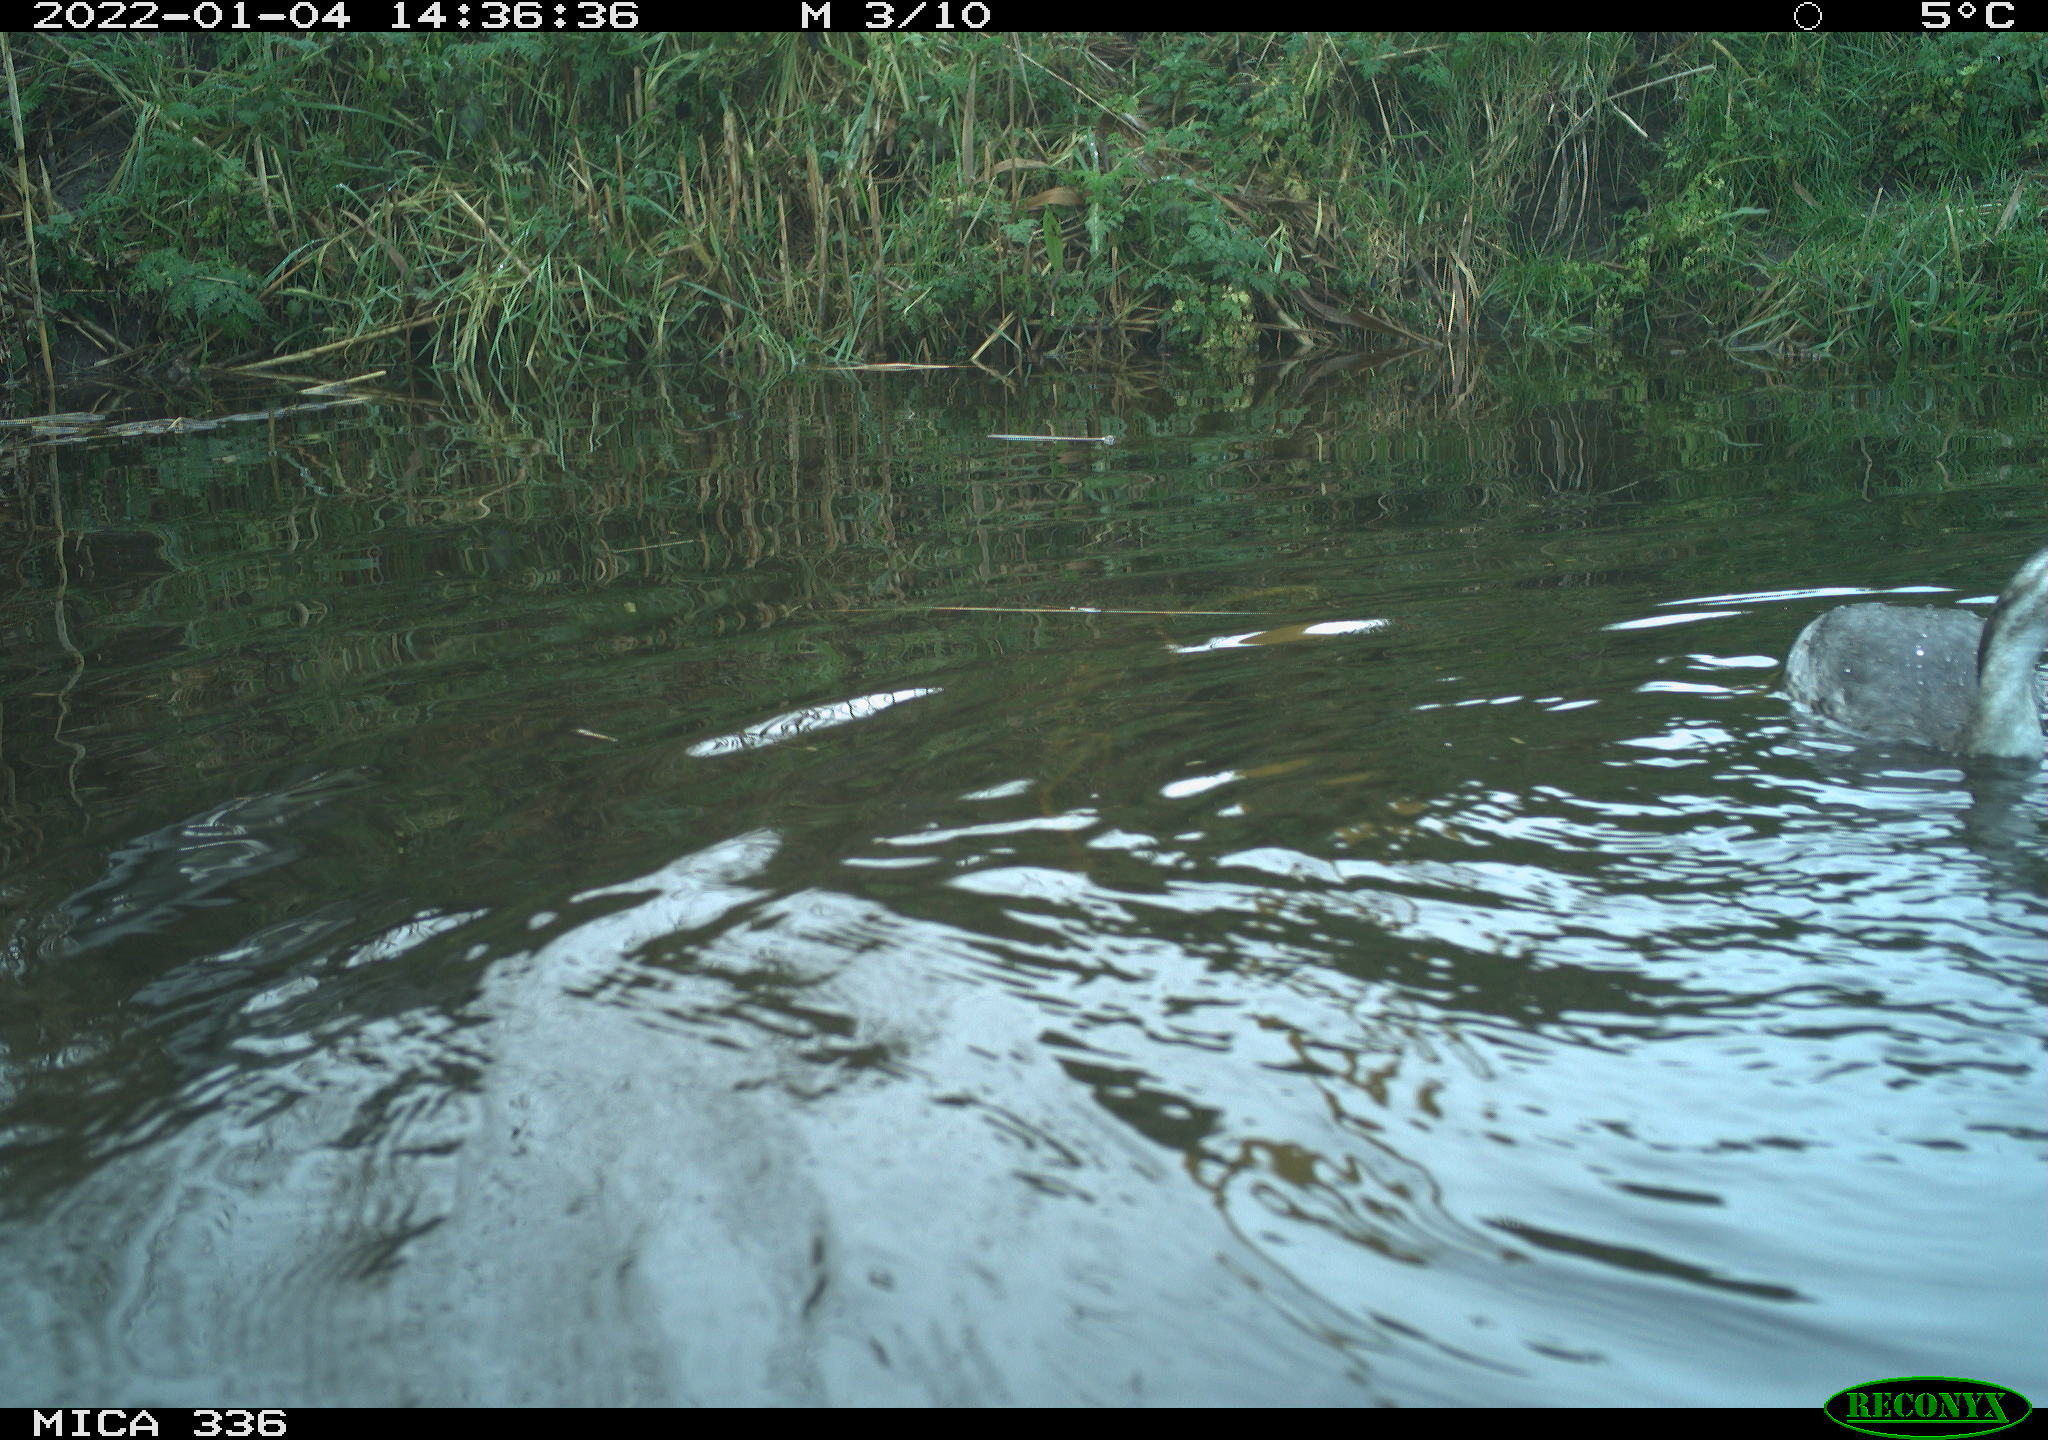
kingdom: Animalia
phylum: Chordata
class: Aves
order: Podicipediformes
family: Podicipedidae
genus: Podiceps
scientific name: Podiceps cristatus
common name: Great crested grebe
